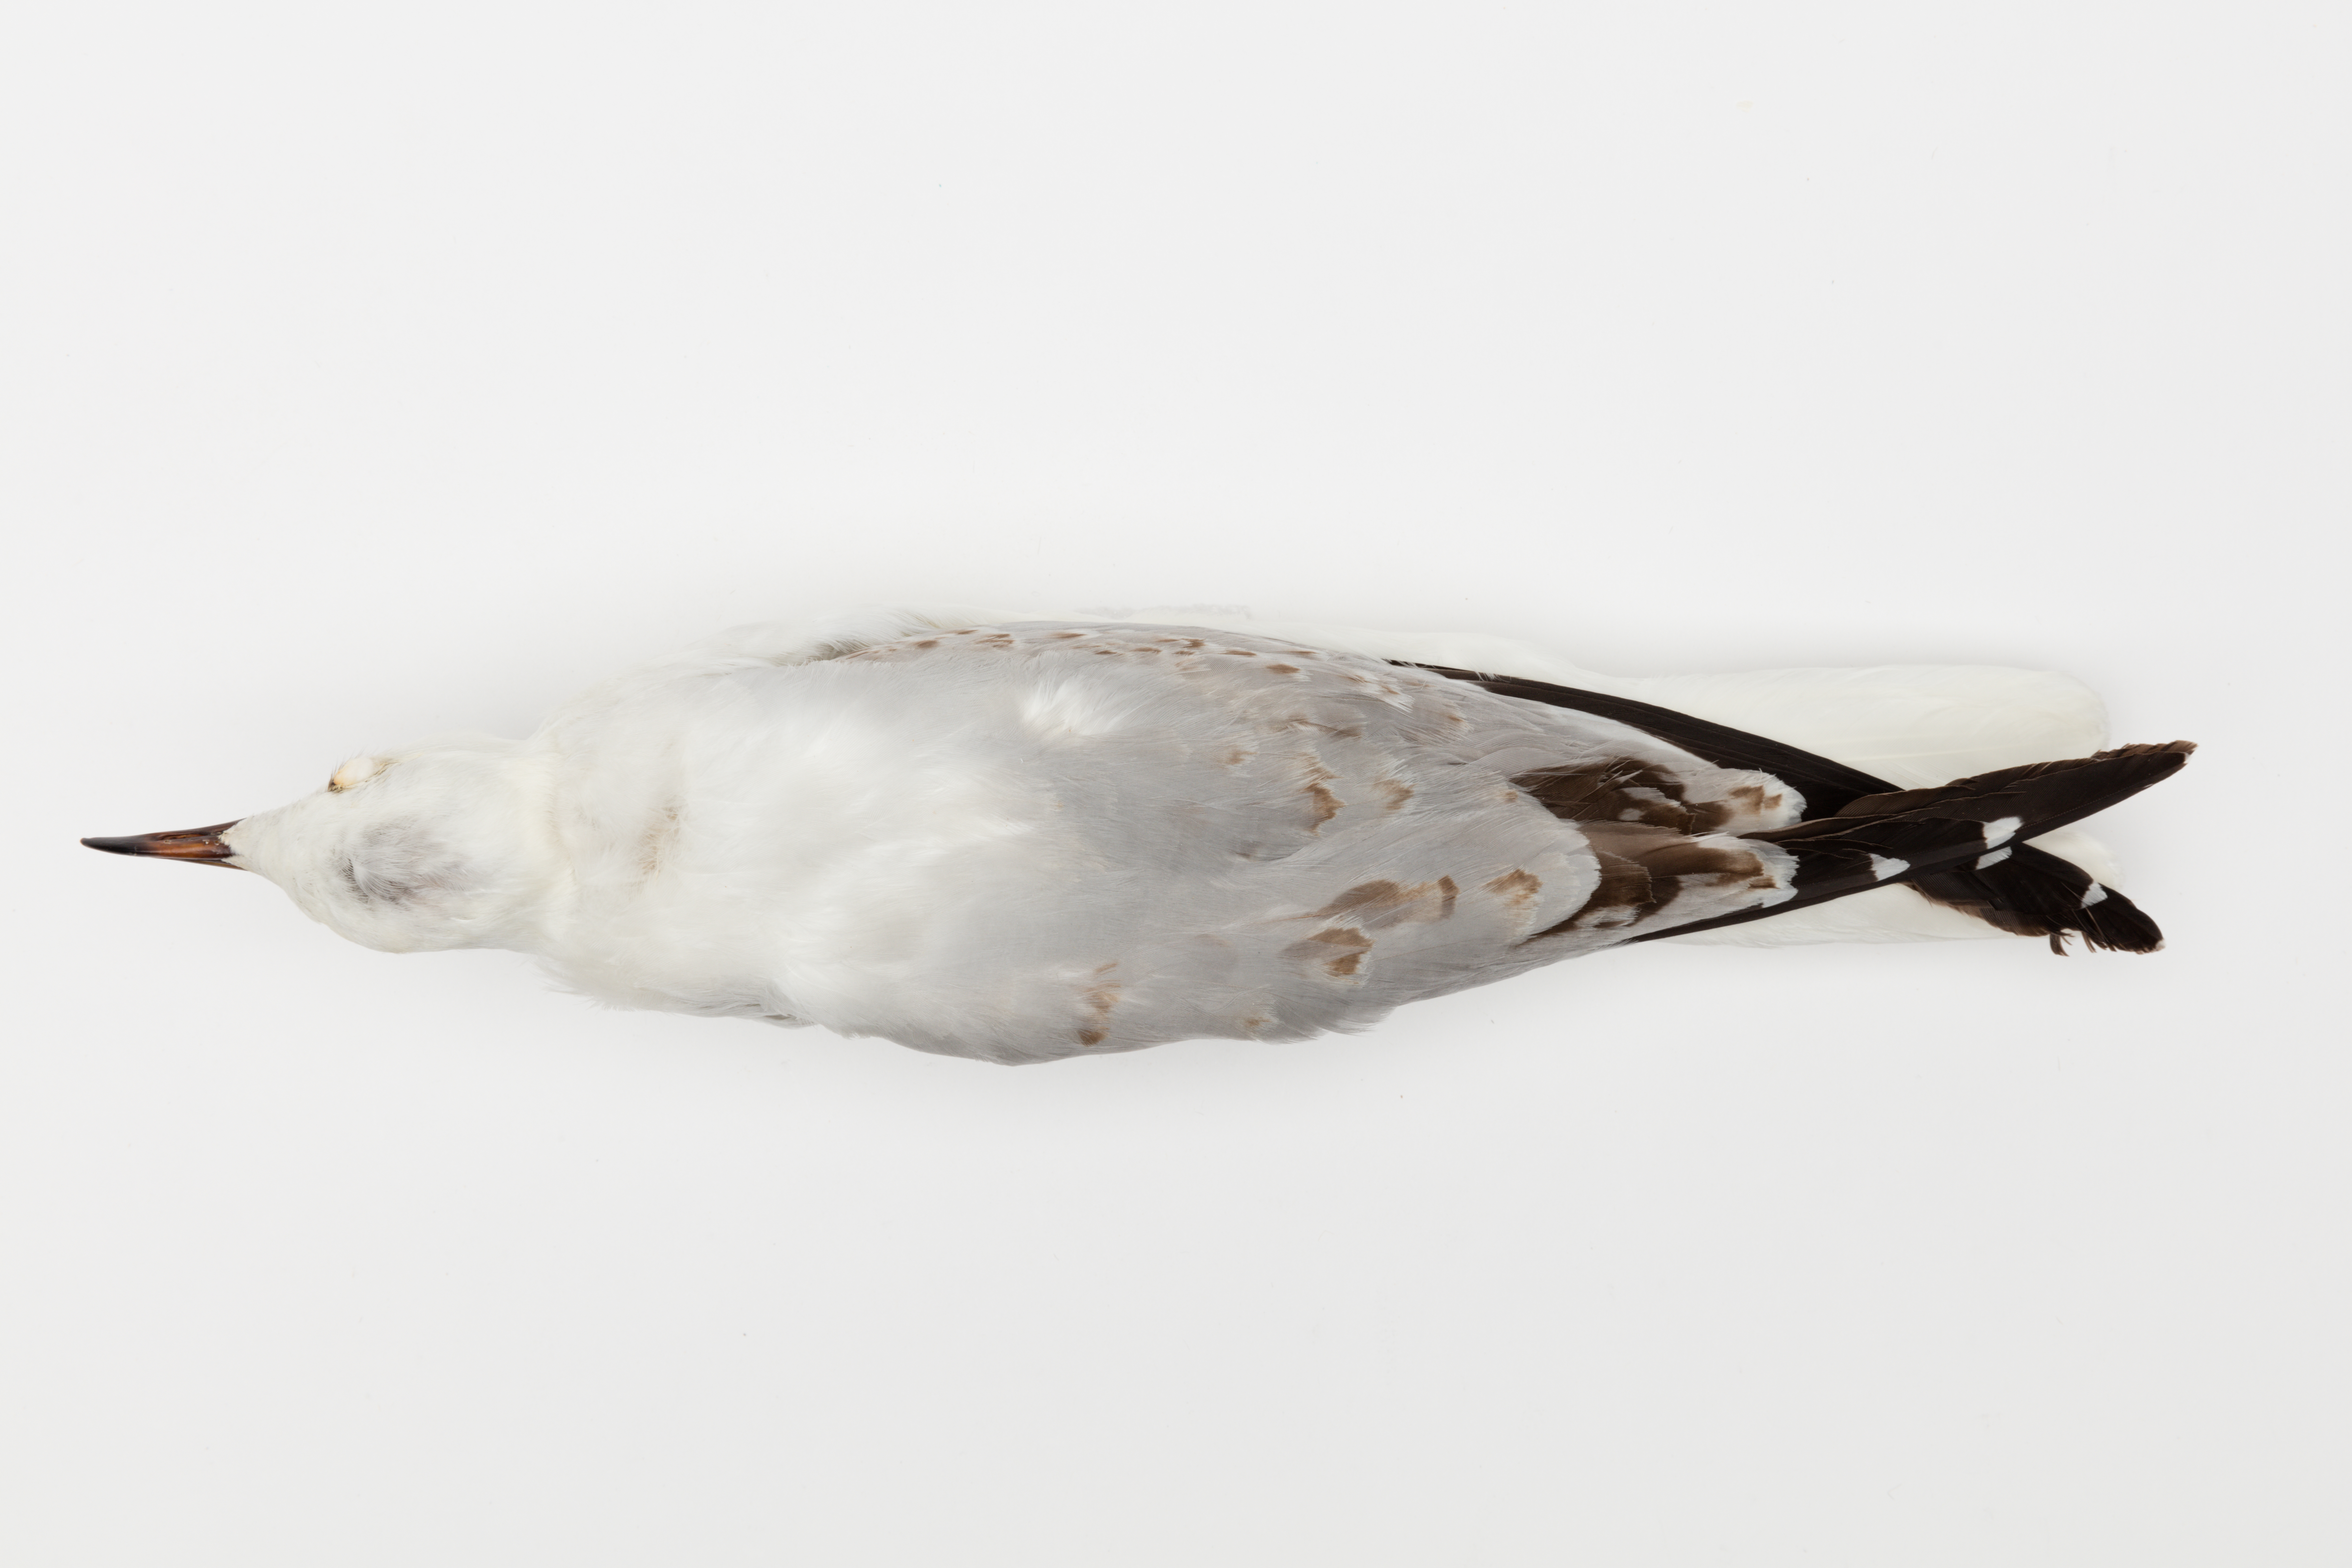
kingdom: Animalia
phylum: Chordata
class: Aves
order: Charadriiformes
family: Laridae
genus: Chroicocephalus
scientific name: Chroicocephalus novaehollandiae
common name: Silver gull
